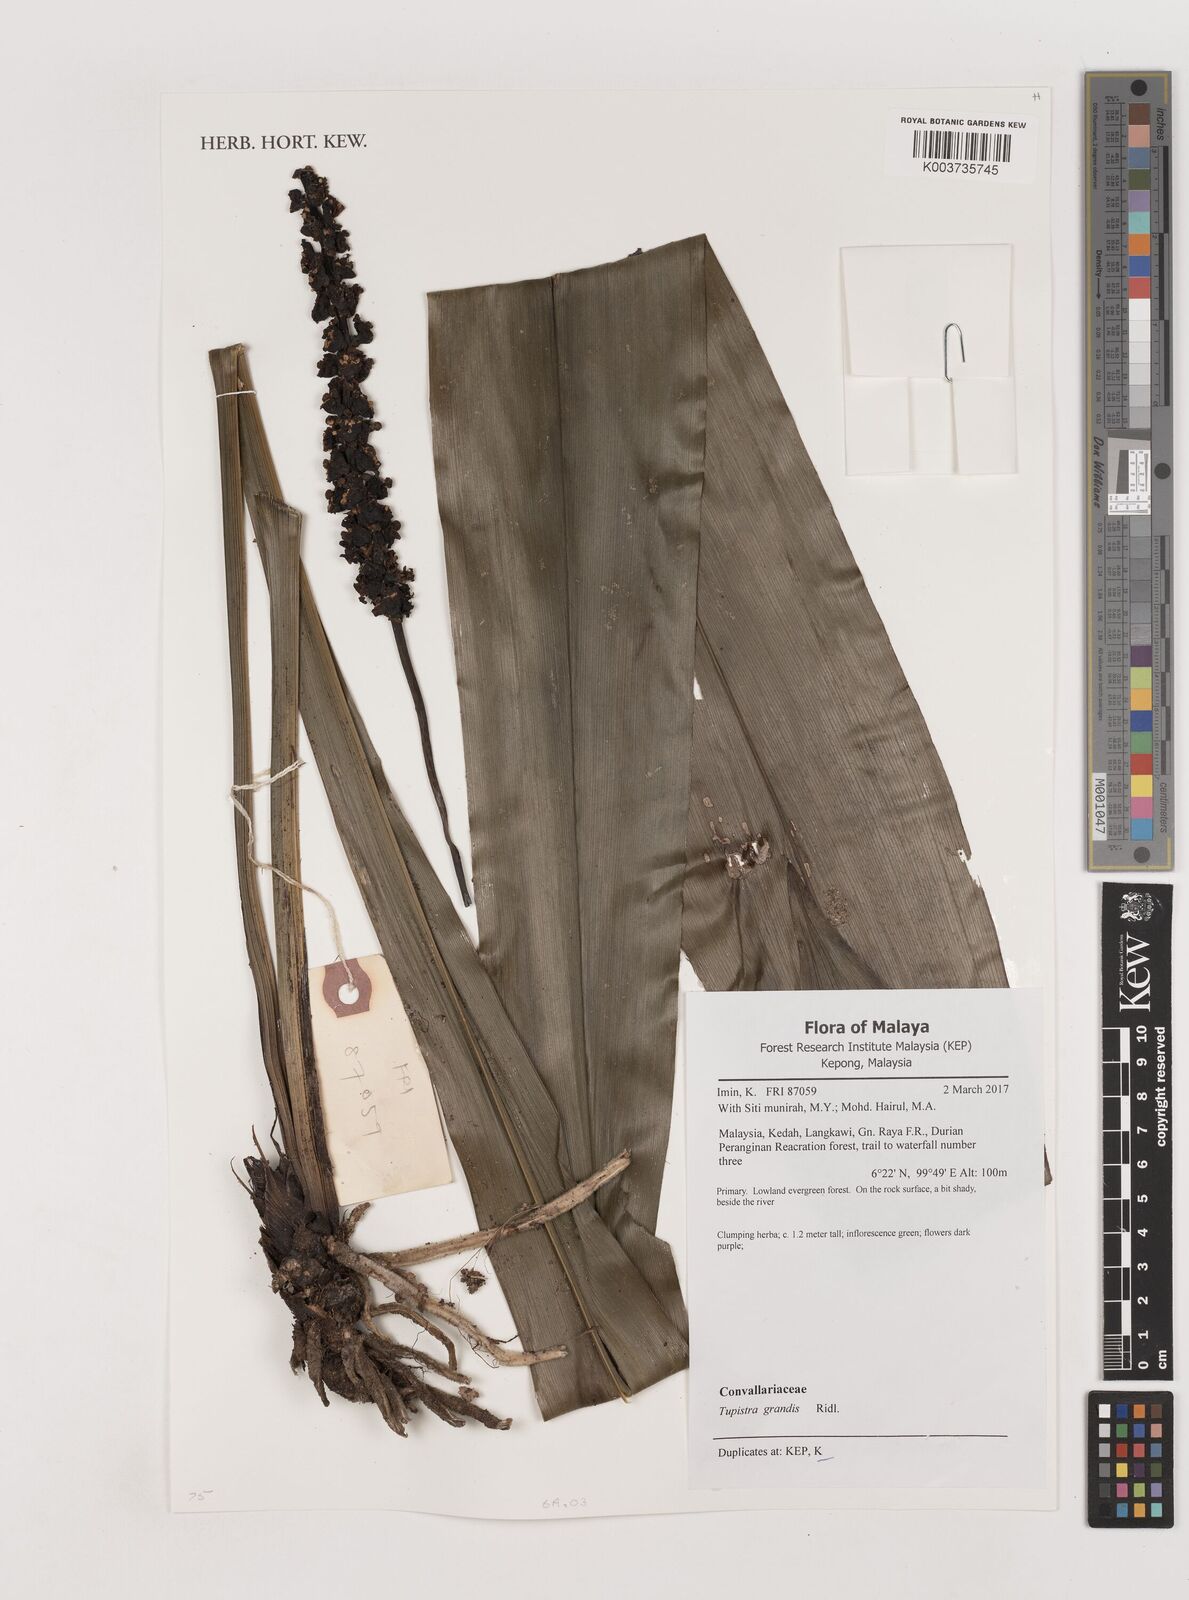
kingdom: Plantae
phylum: Tracheophyta
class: Liliopsida
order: Asparagales
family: Asparagaceae
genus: Tupistra
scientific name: Tupistra grandis
